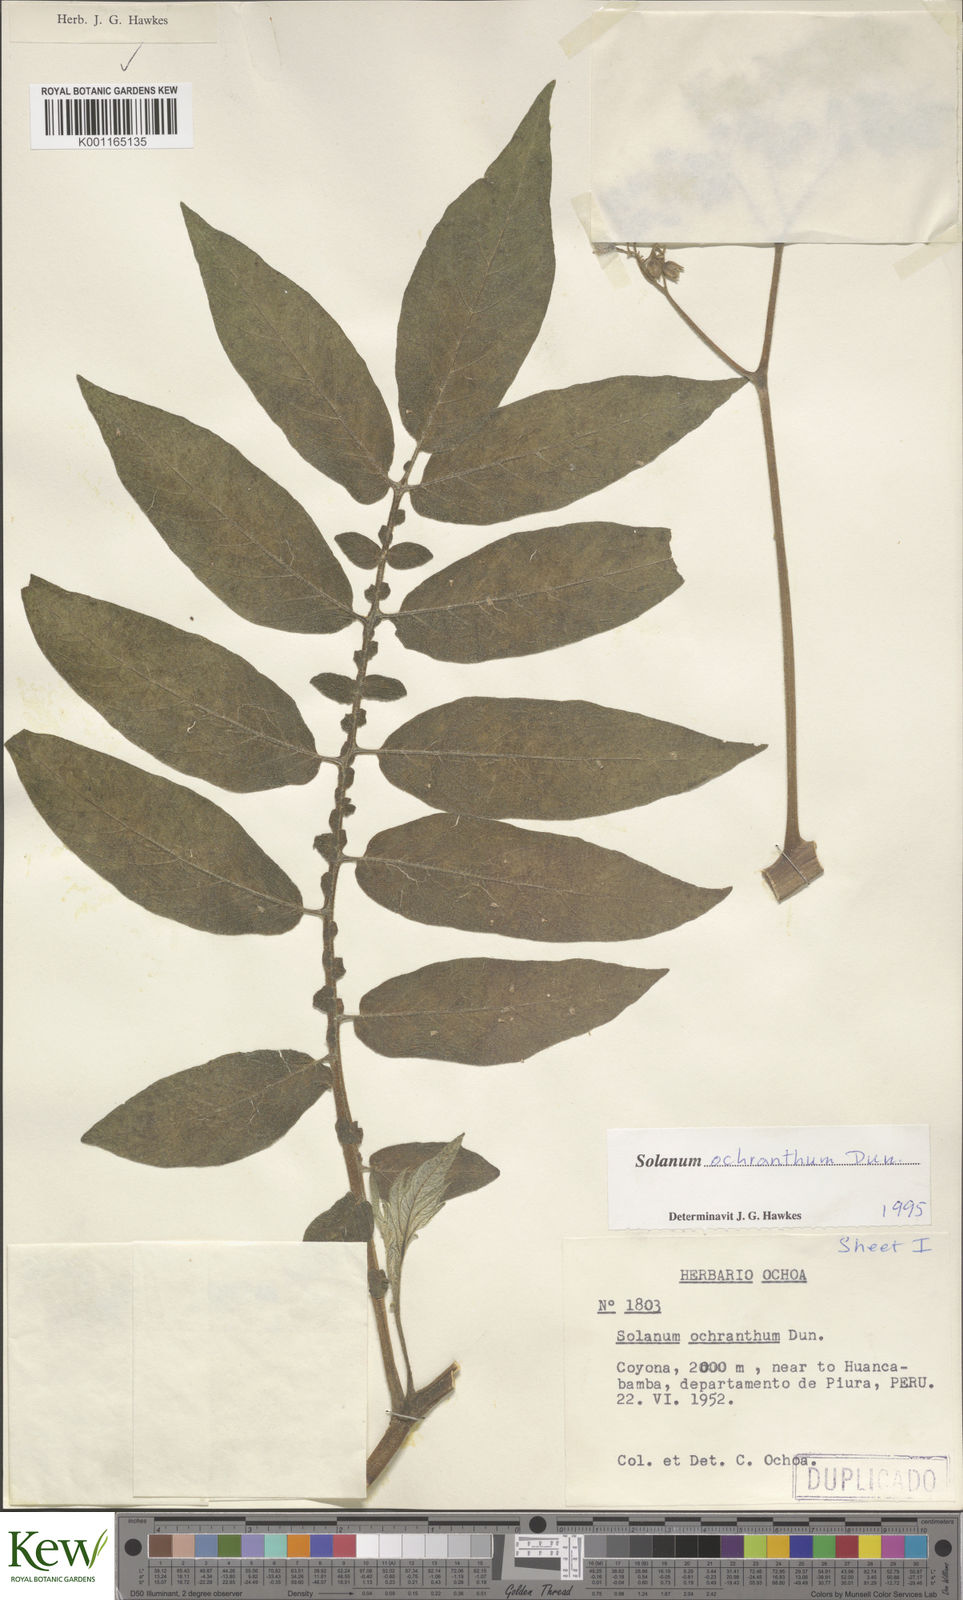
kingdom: Plantae
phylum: Tracheophyta
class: Magnoliopsida
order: Solanales
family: Solanaceae
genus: Solanum
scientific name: Solanum ochranthum
